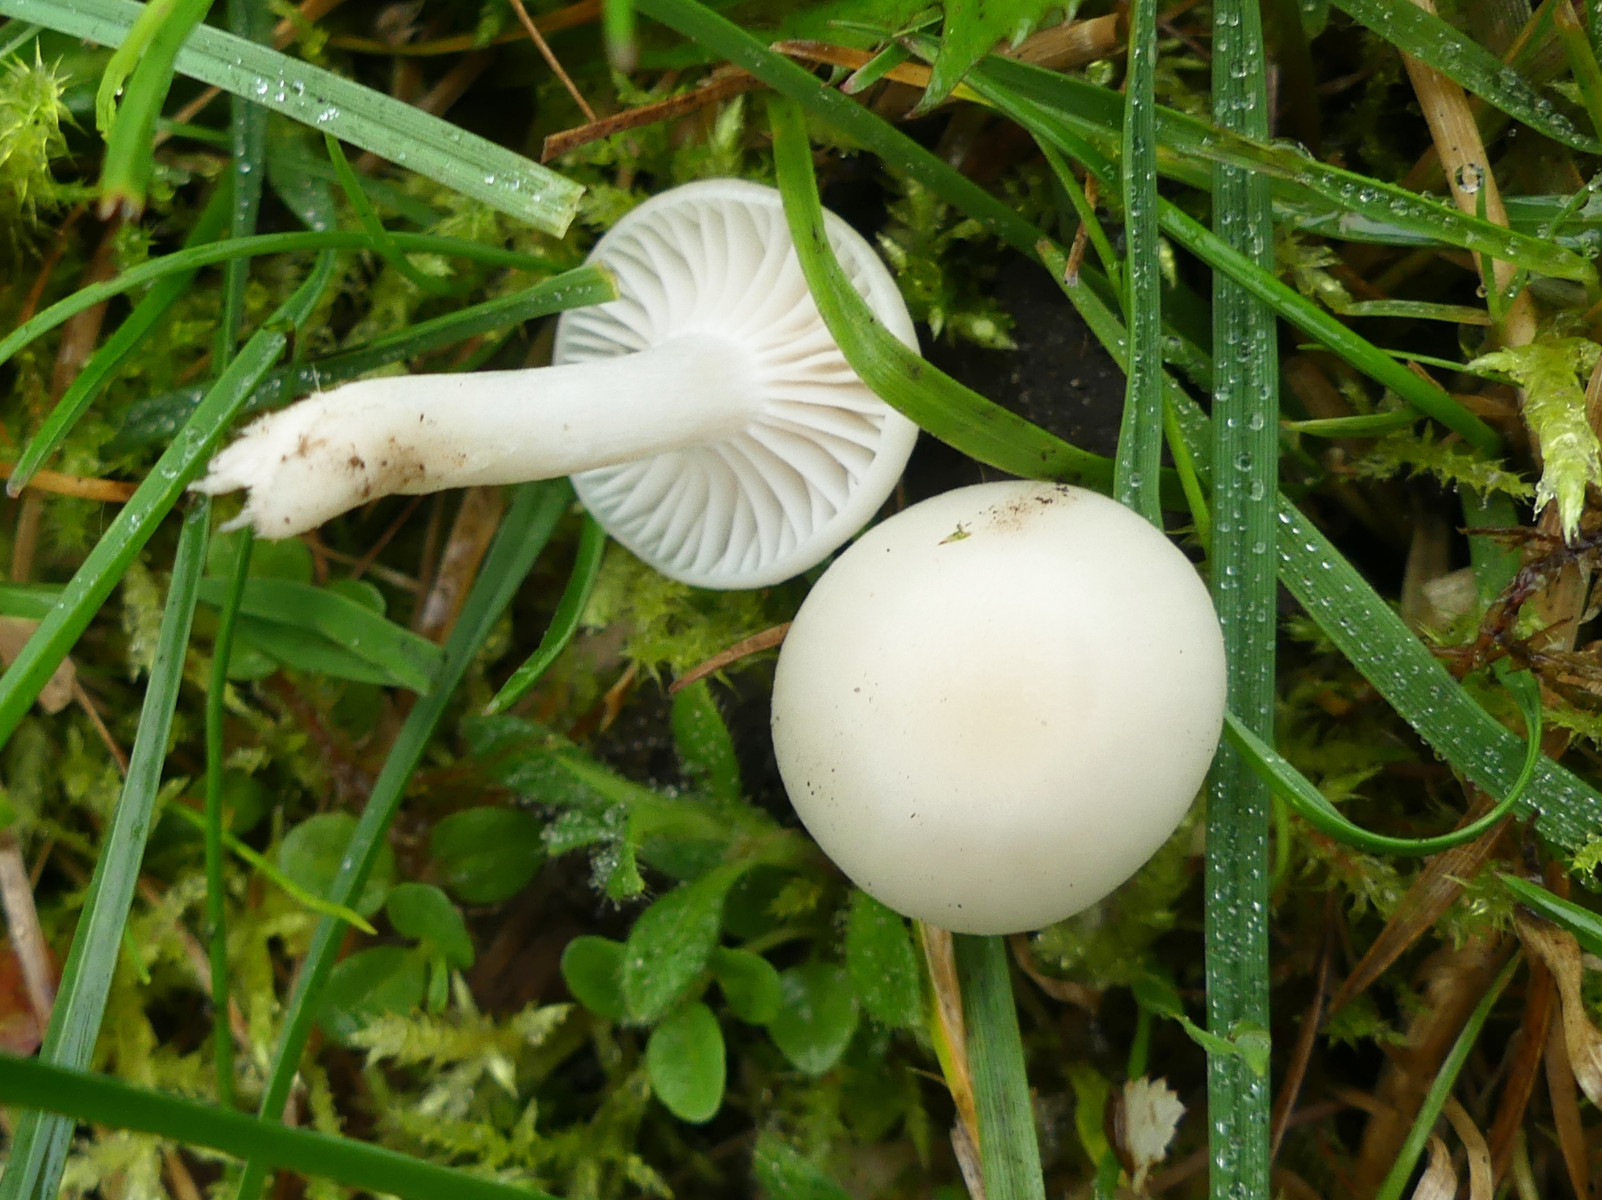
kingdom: Fungi
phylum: Basidiomycota
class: Agaricomycetes
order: Agaricales
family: Hygrophoraceae
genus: Cuphophyllus
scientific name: Cuphophyllus virgineus
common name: snehvid vokshat
